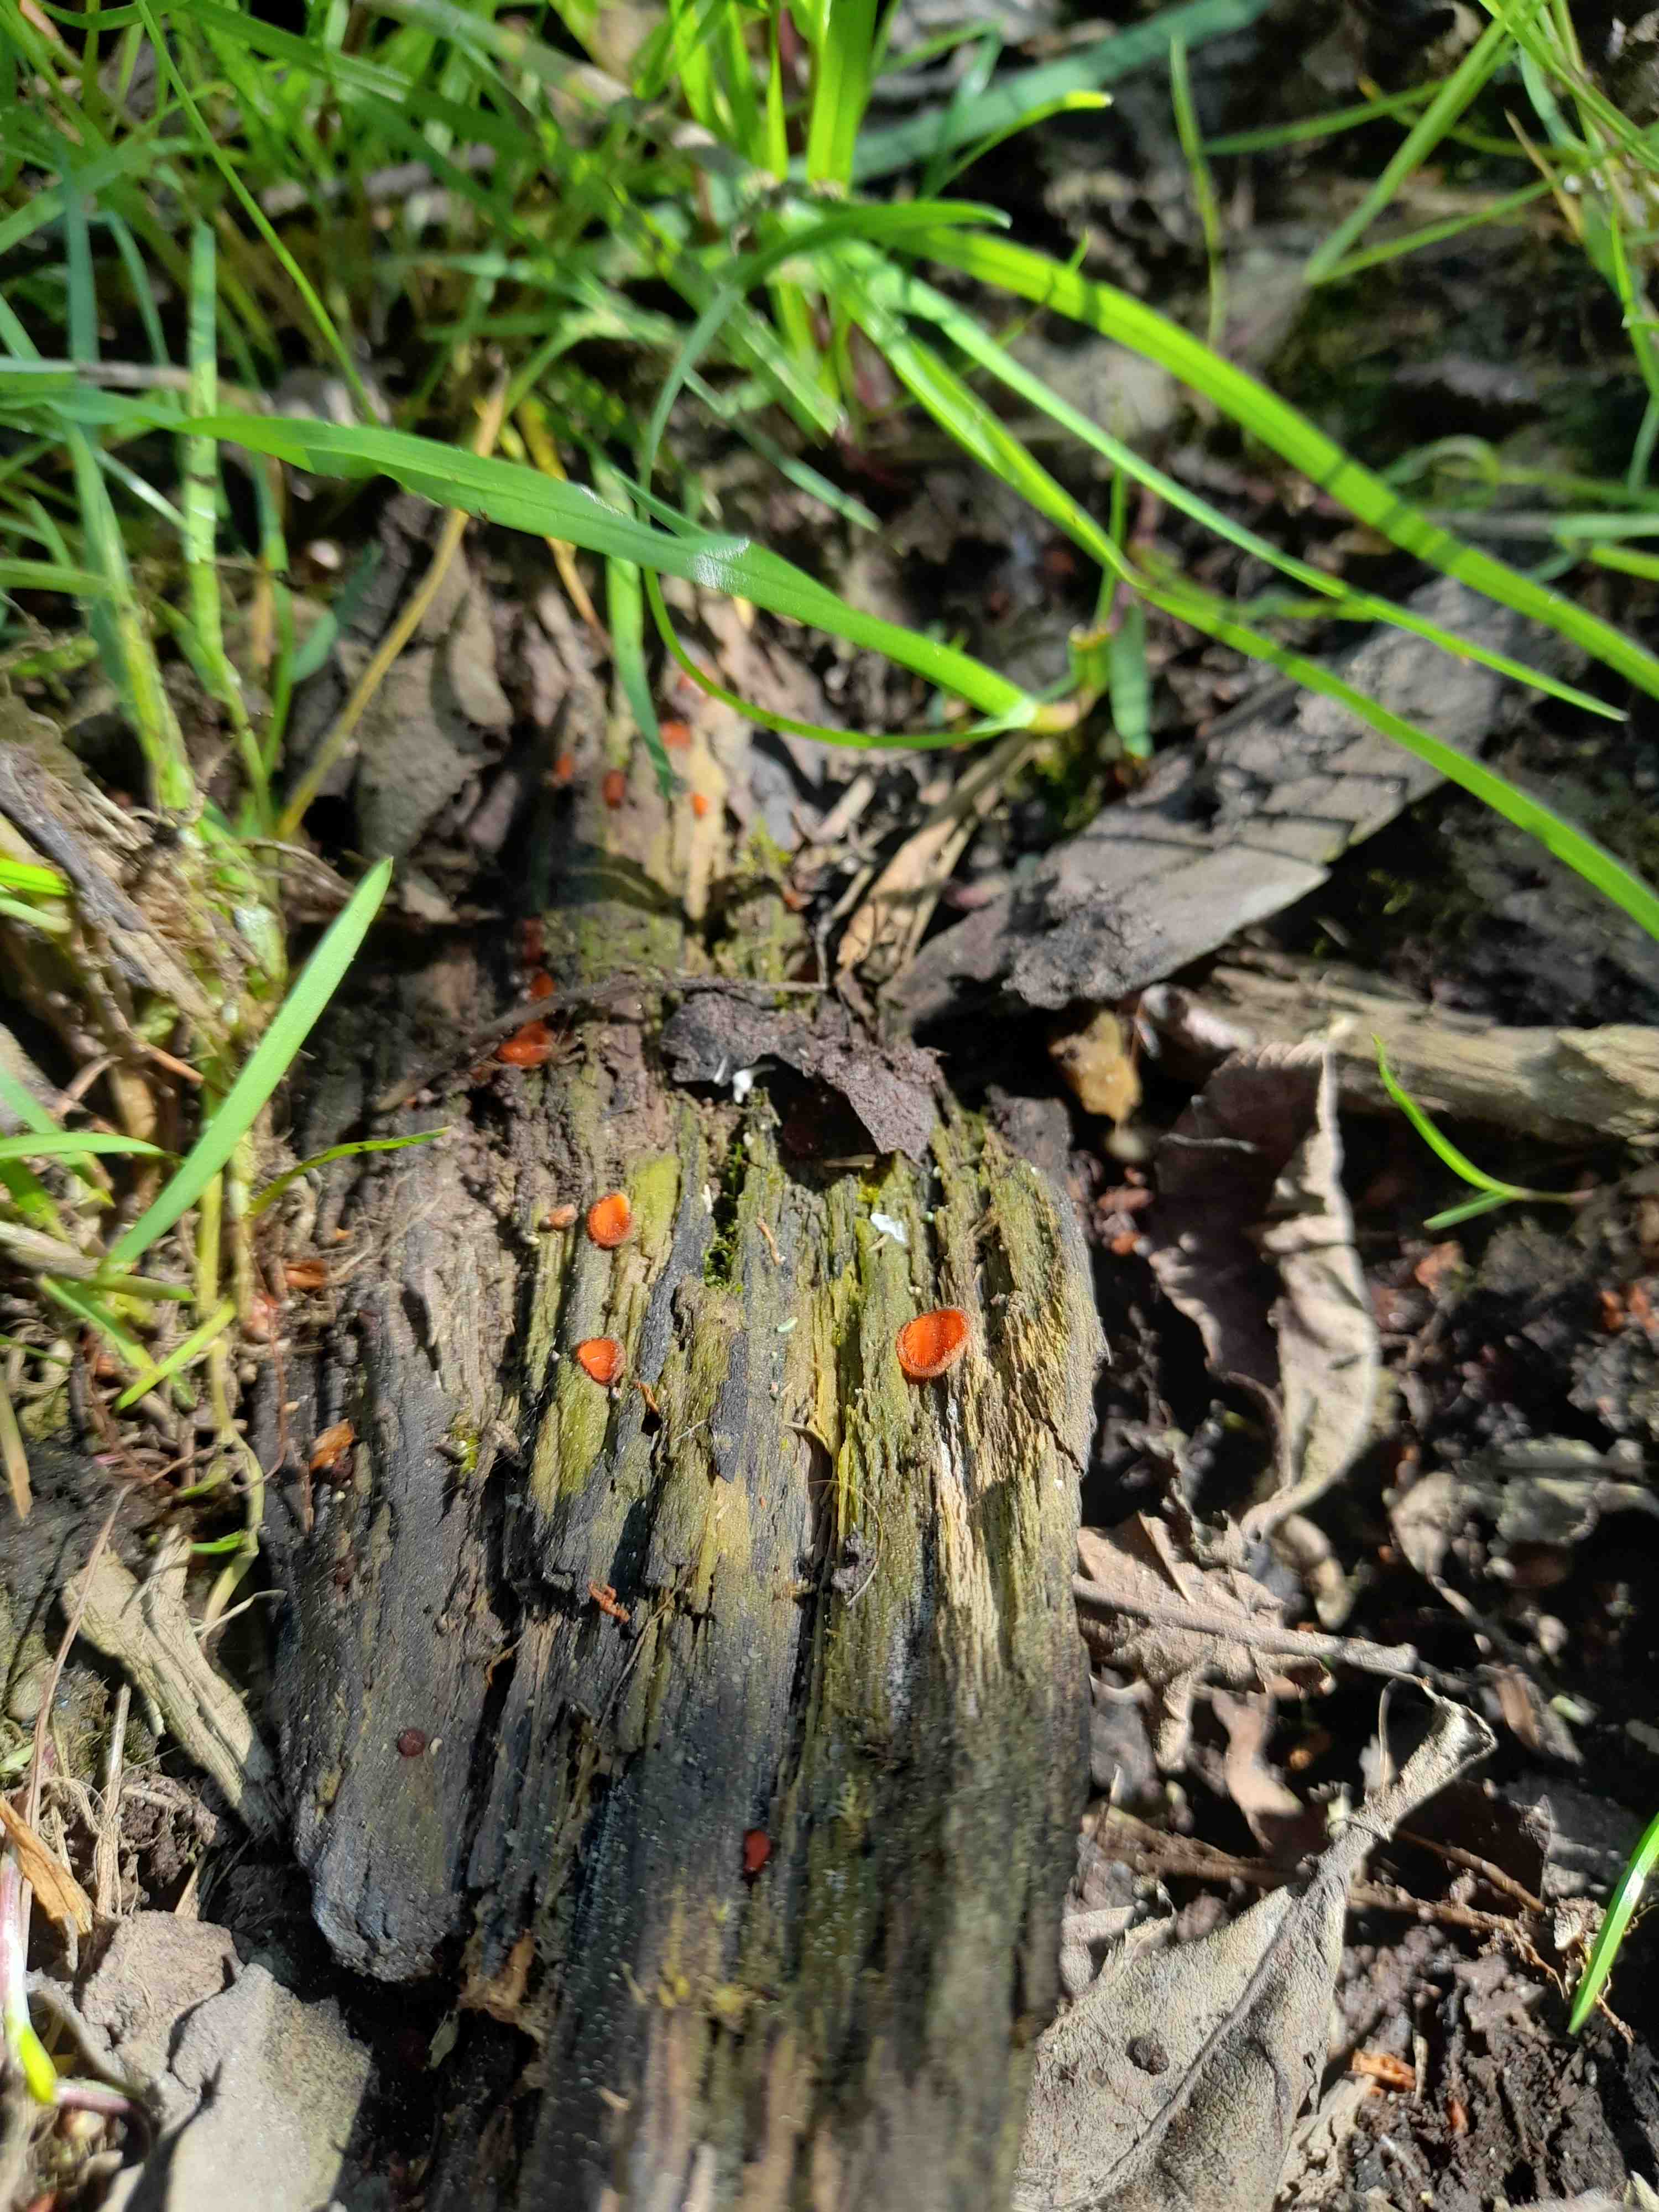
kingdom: Fungi
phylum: Ascomycota
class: Pezizomycetes
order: Pezizales
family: Pyronemataceae
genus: Scutellinia
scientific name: Scutellinia scutellata
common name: frynset skjoldbæger
